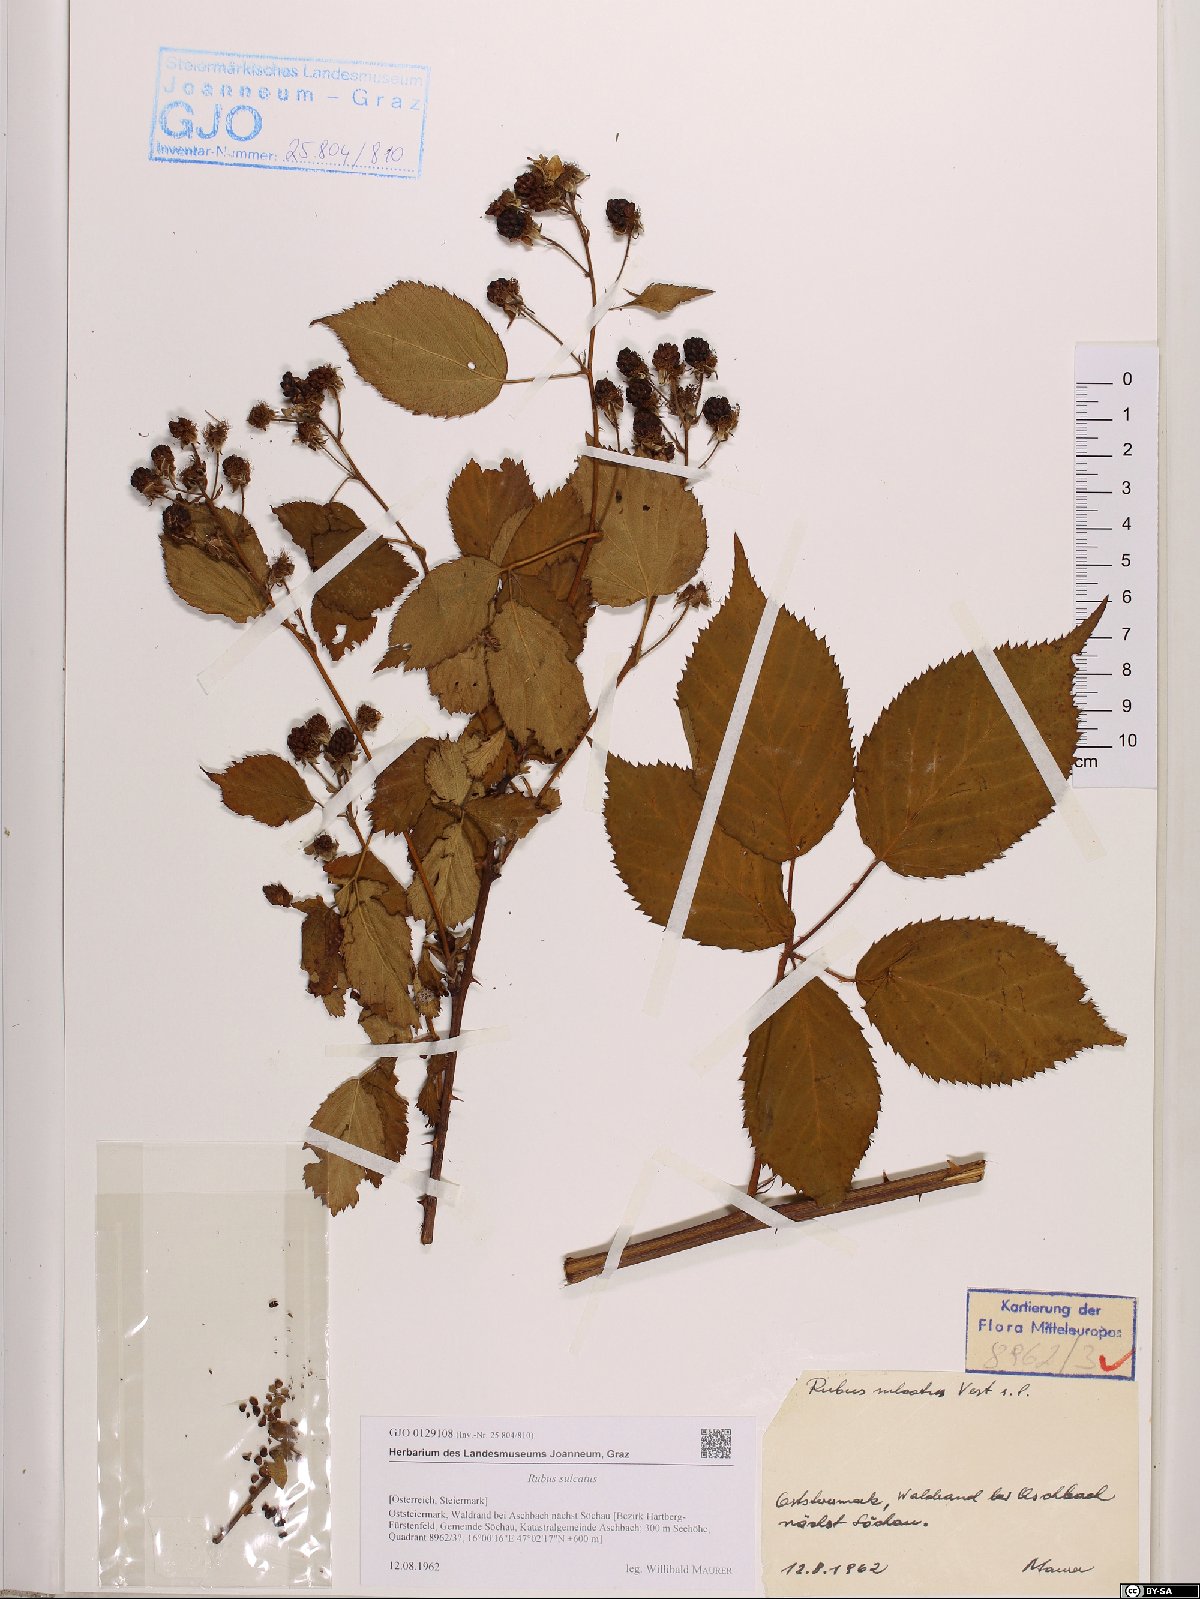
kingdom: Plantae
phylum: Tracheophyta
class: Magnoliopsida
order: Rosales
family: Rosaceae
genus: Rubus
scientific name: Rubus sulcatus
